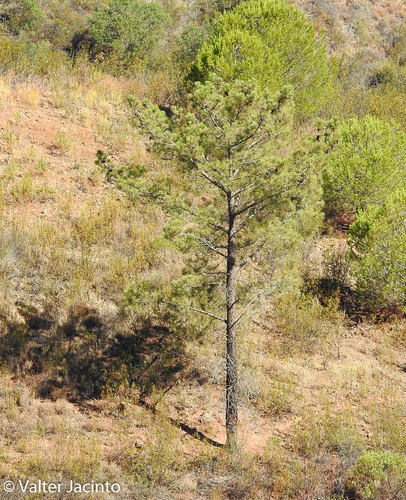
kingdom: Plantae
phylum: Tracheophyta
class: Pinopsida
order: Pinales
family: Pinaceae
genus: Pinus
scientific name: Pinus pinaster
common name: Maritime pine
